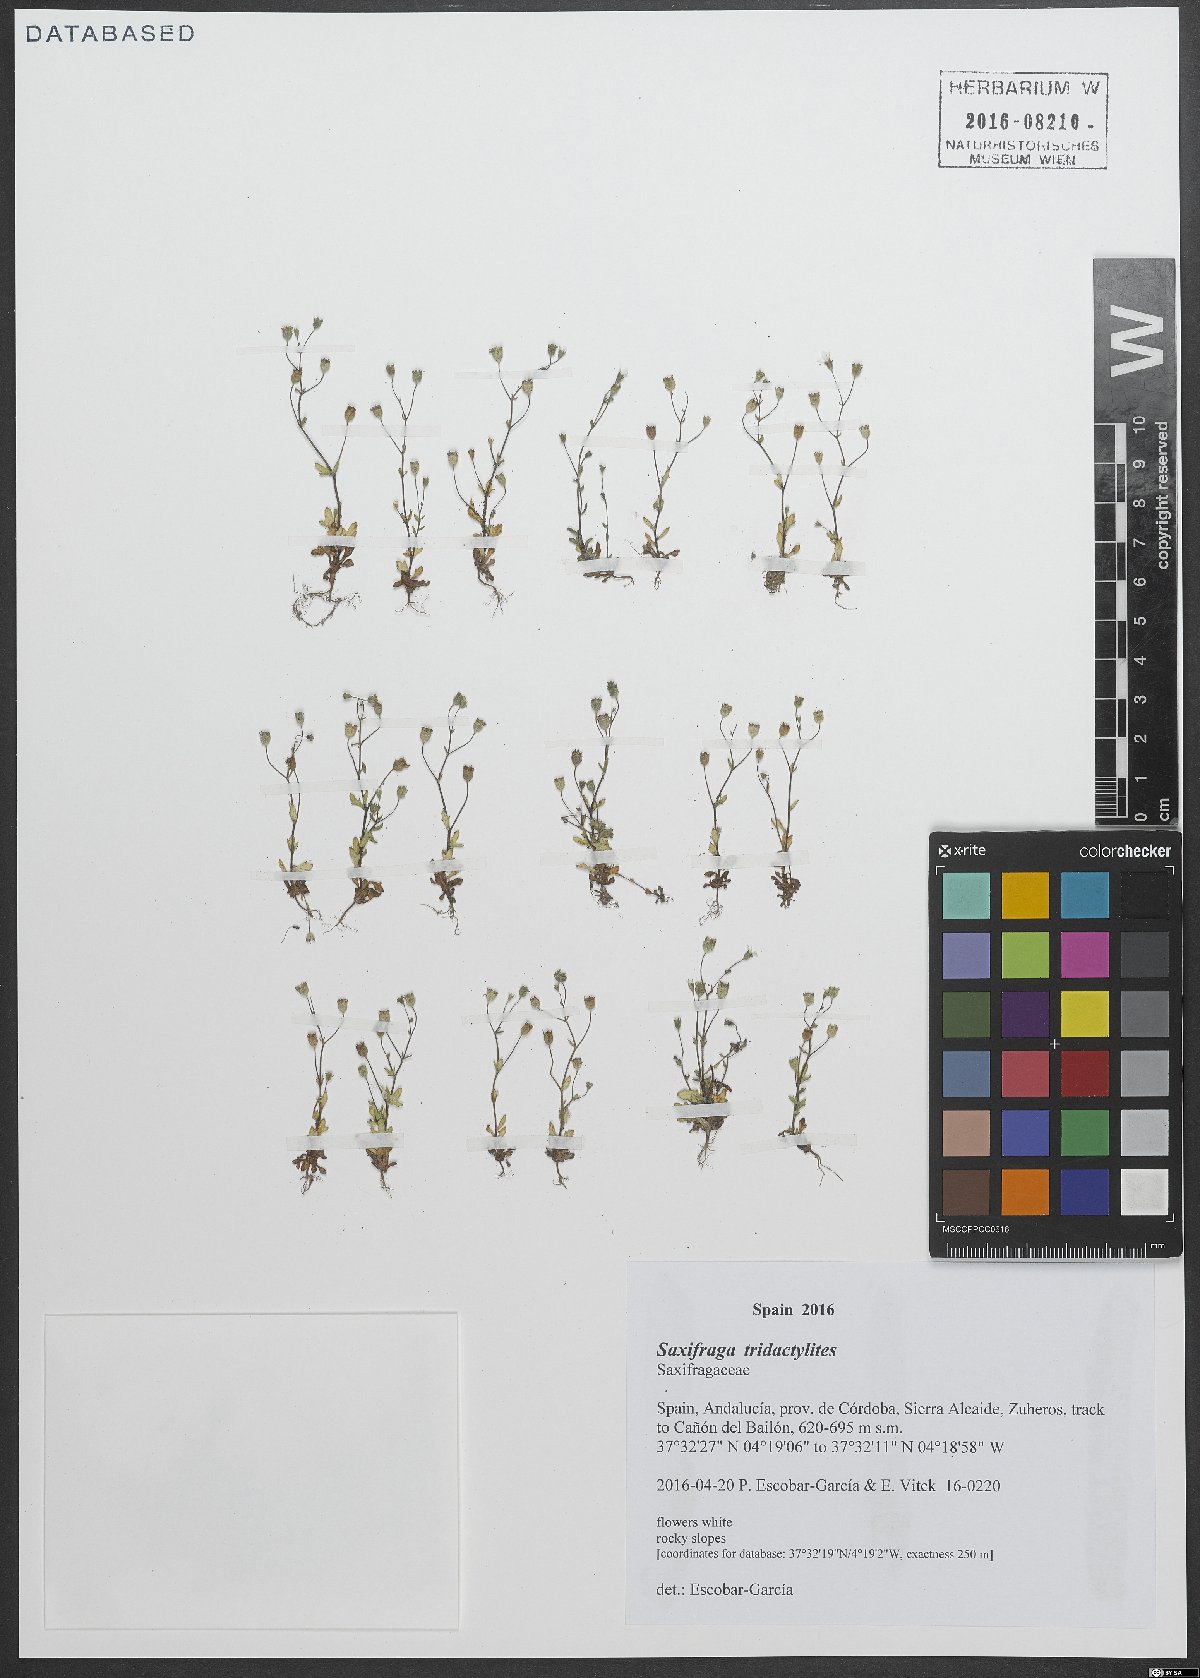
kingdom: Plantae
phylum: Tracheophyta
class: Magnoliopsida
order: Saxifragales
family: Saxifragaceae
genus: Saxifraga
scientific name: Saxifraga tridactylites
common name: Rue-leaved saxifrage
